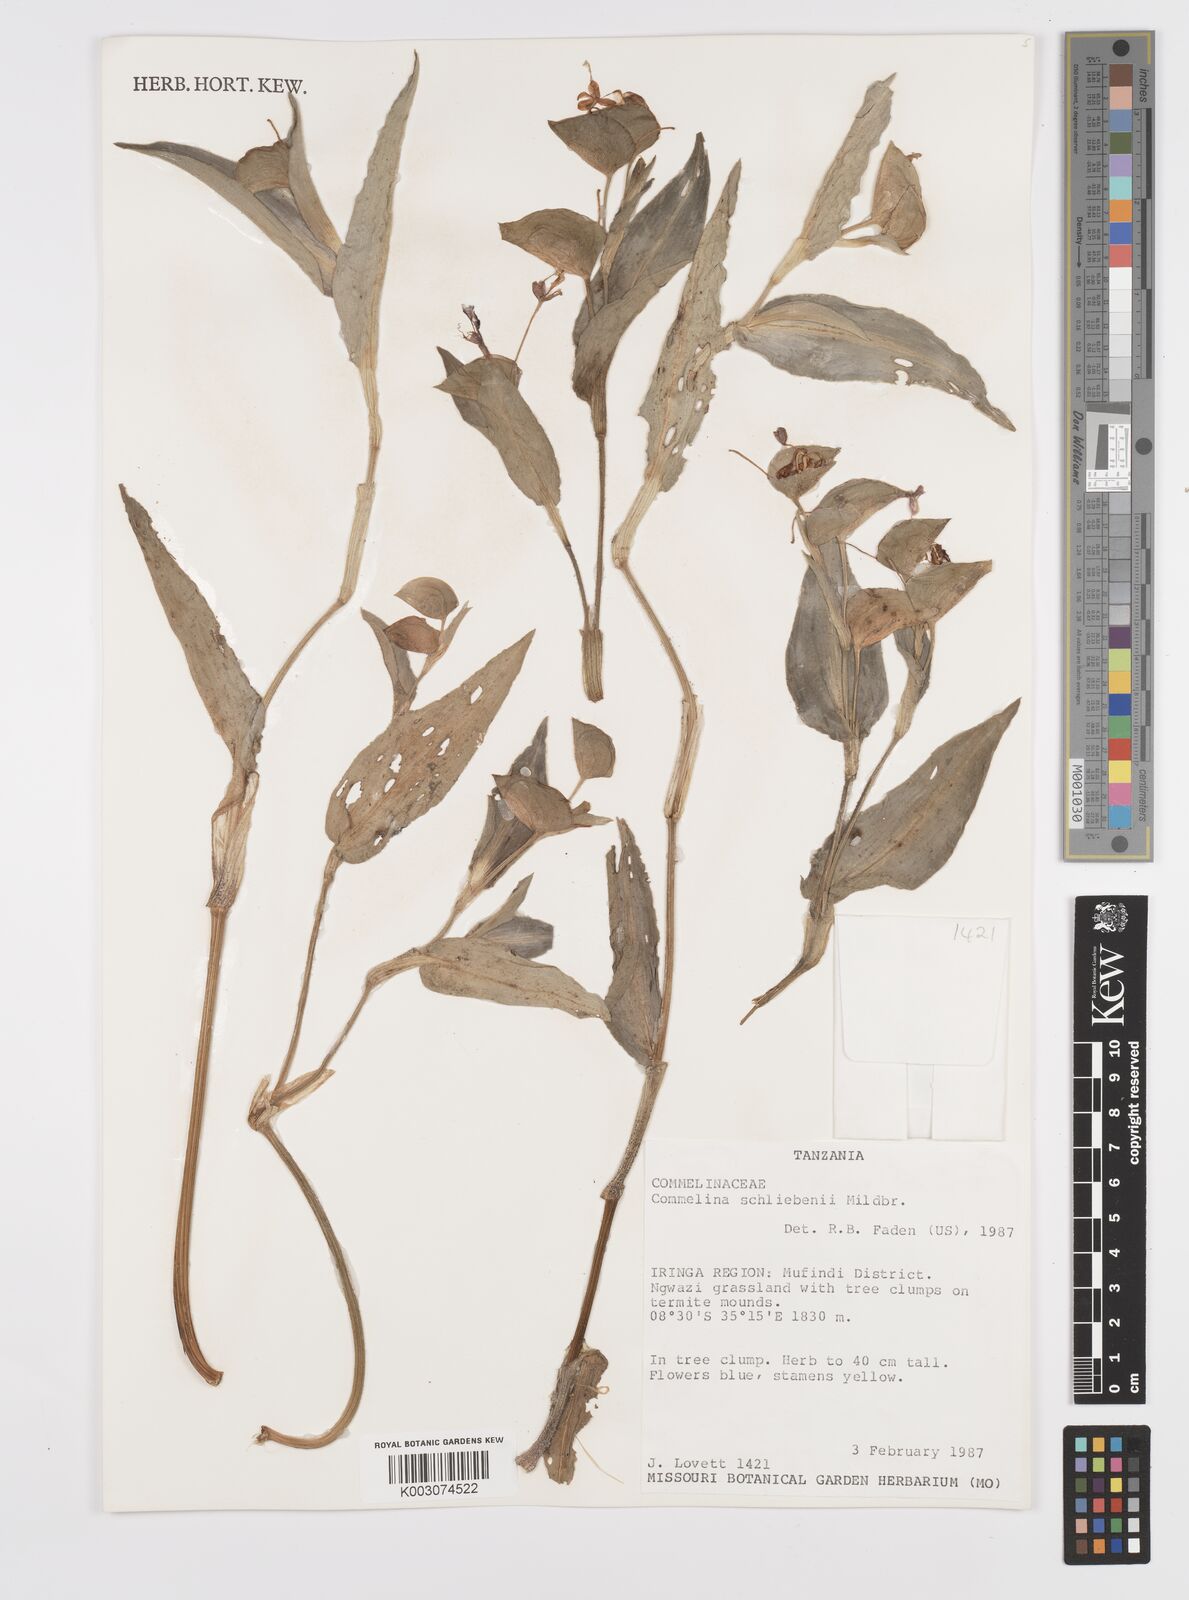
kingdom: Plantae
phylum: Tracheophyta
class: Liliopsida
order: Commelinales
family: Commelinaceae
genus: Commelina
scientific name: Commelina schliebenii
